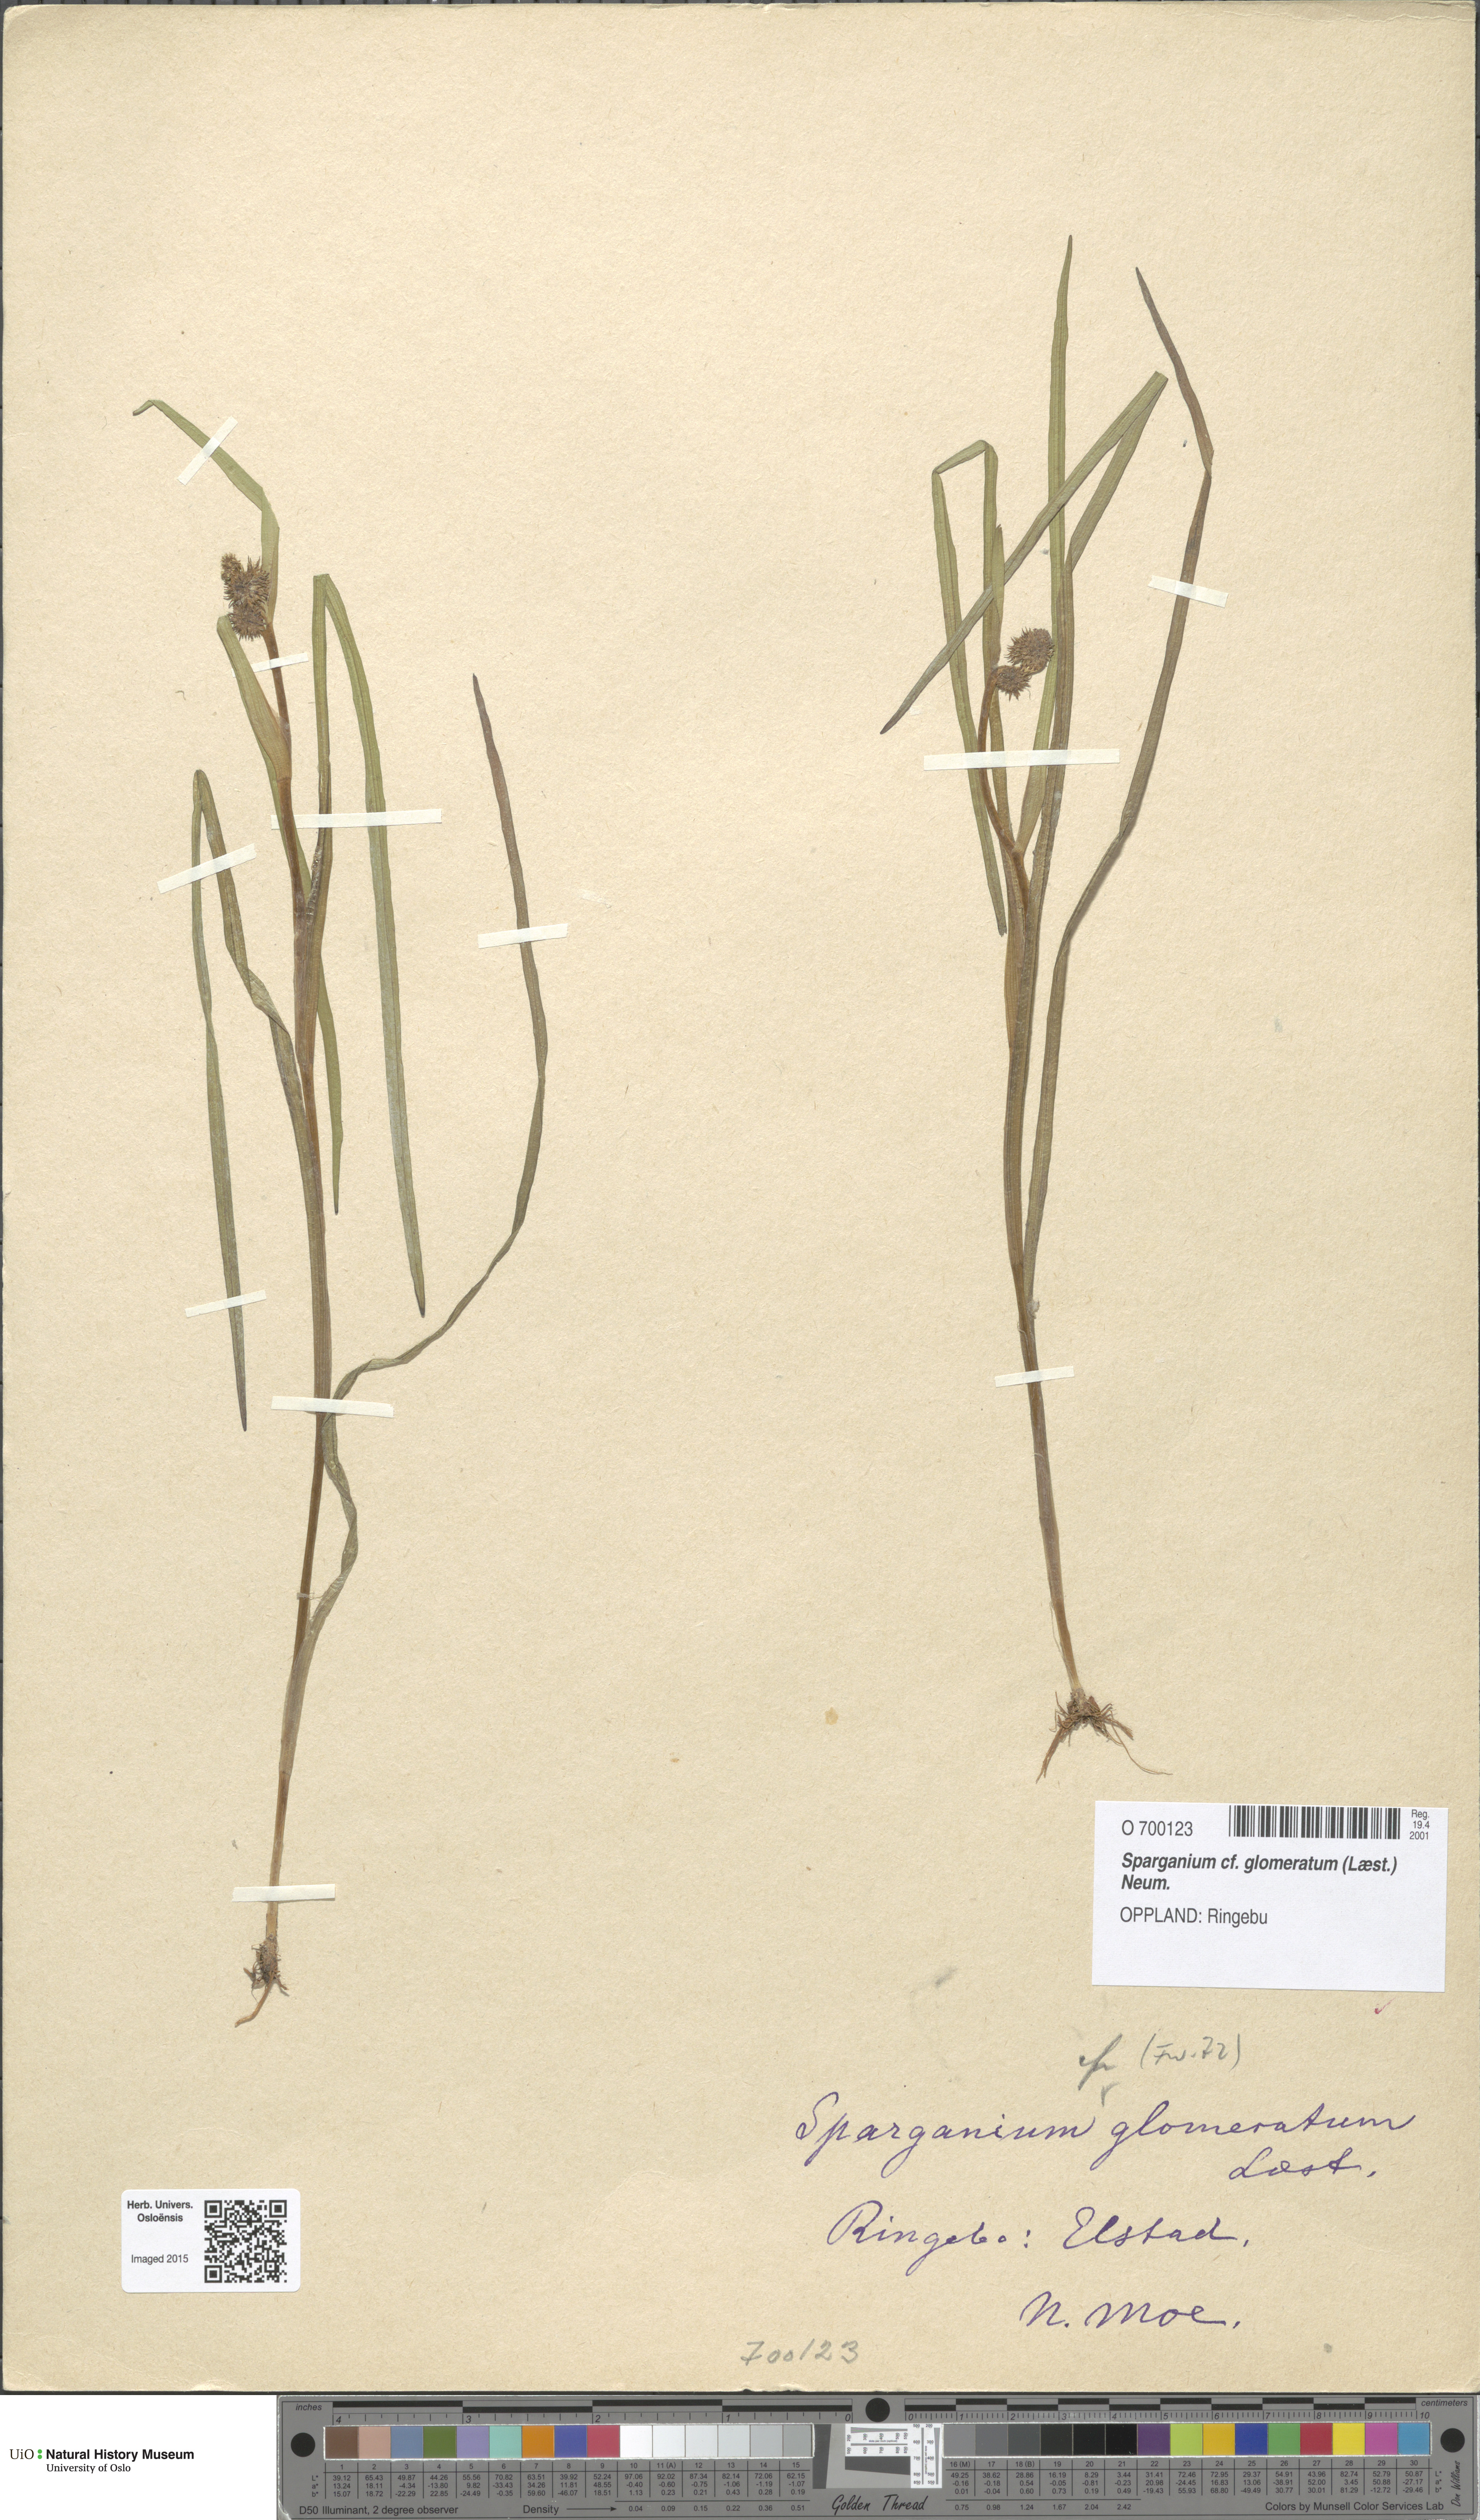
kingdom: Plantae
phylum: Tracheophyta
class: Liliopsida
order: Poales
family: Typhaceae
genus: Sparganium
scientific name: Sparganium glomeratum
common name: Clustered burreed
